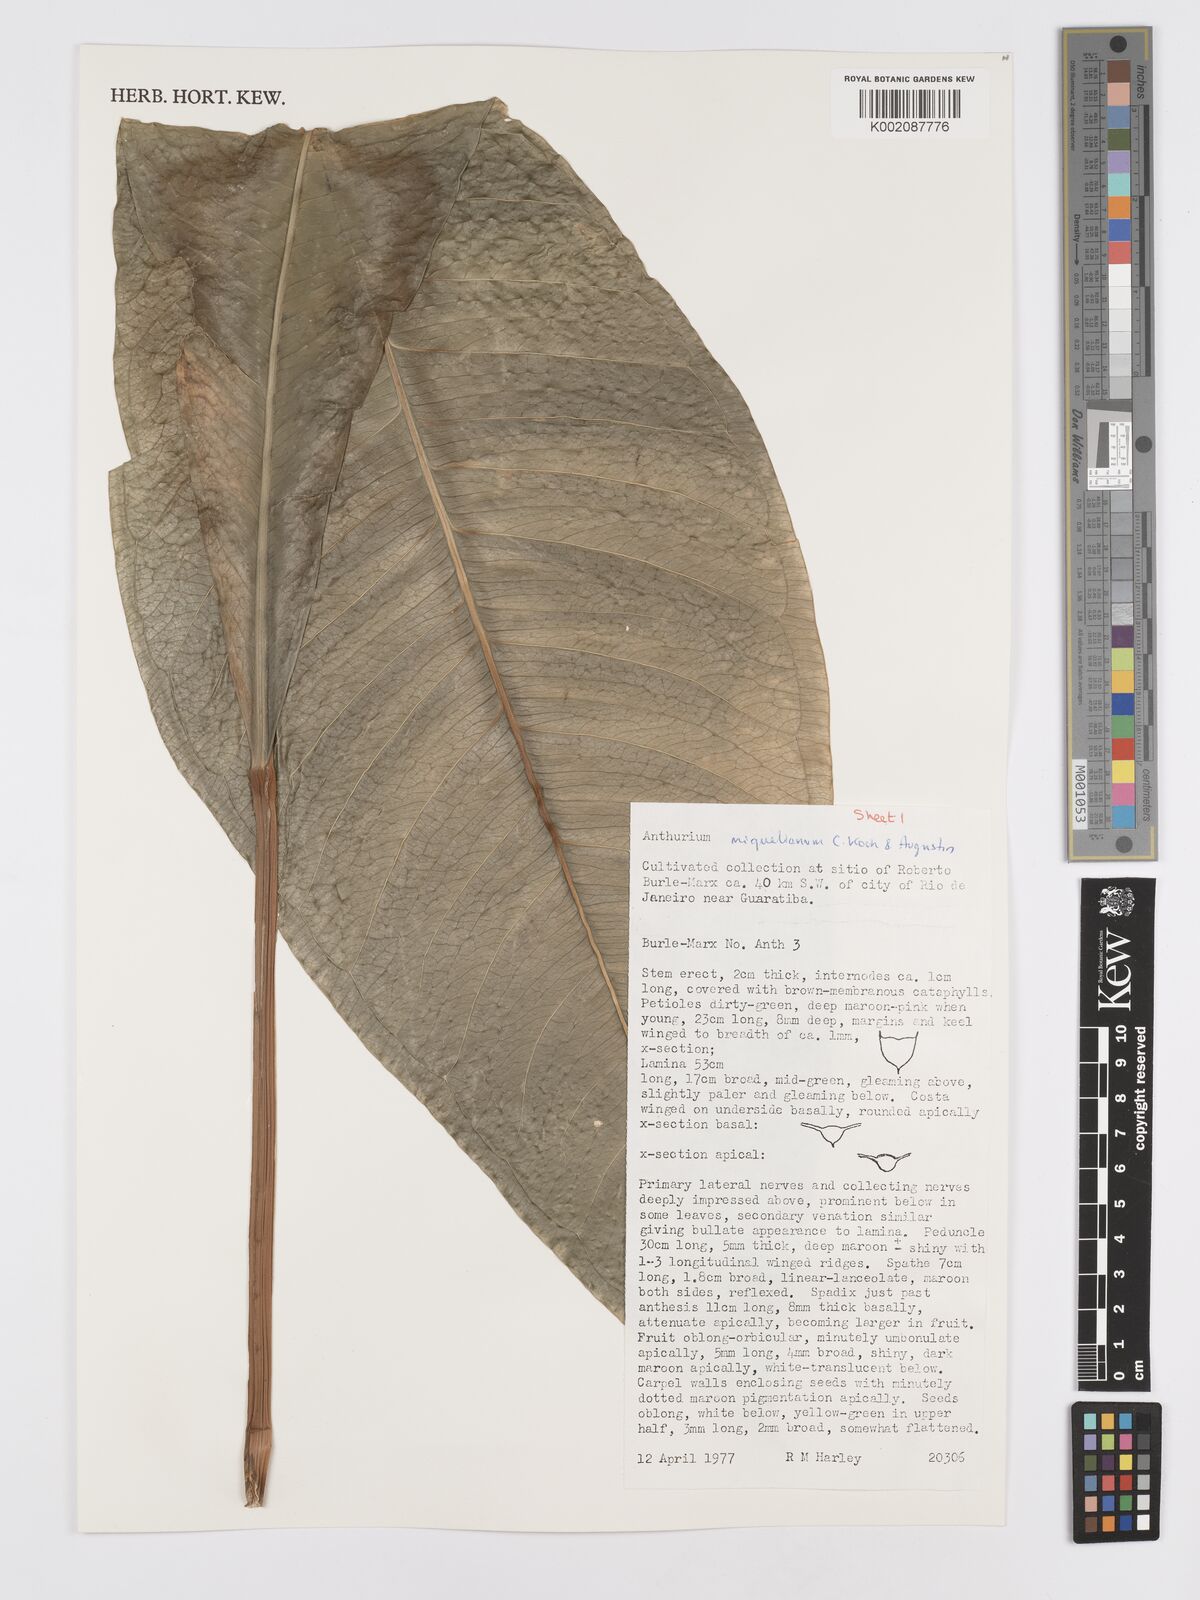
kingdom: Plantae
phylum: Tracheophyta
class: Liliopsida
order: Alismatales
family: Araceae
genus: Anthurium
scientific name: Anthurium parasiticum
